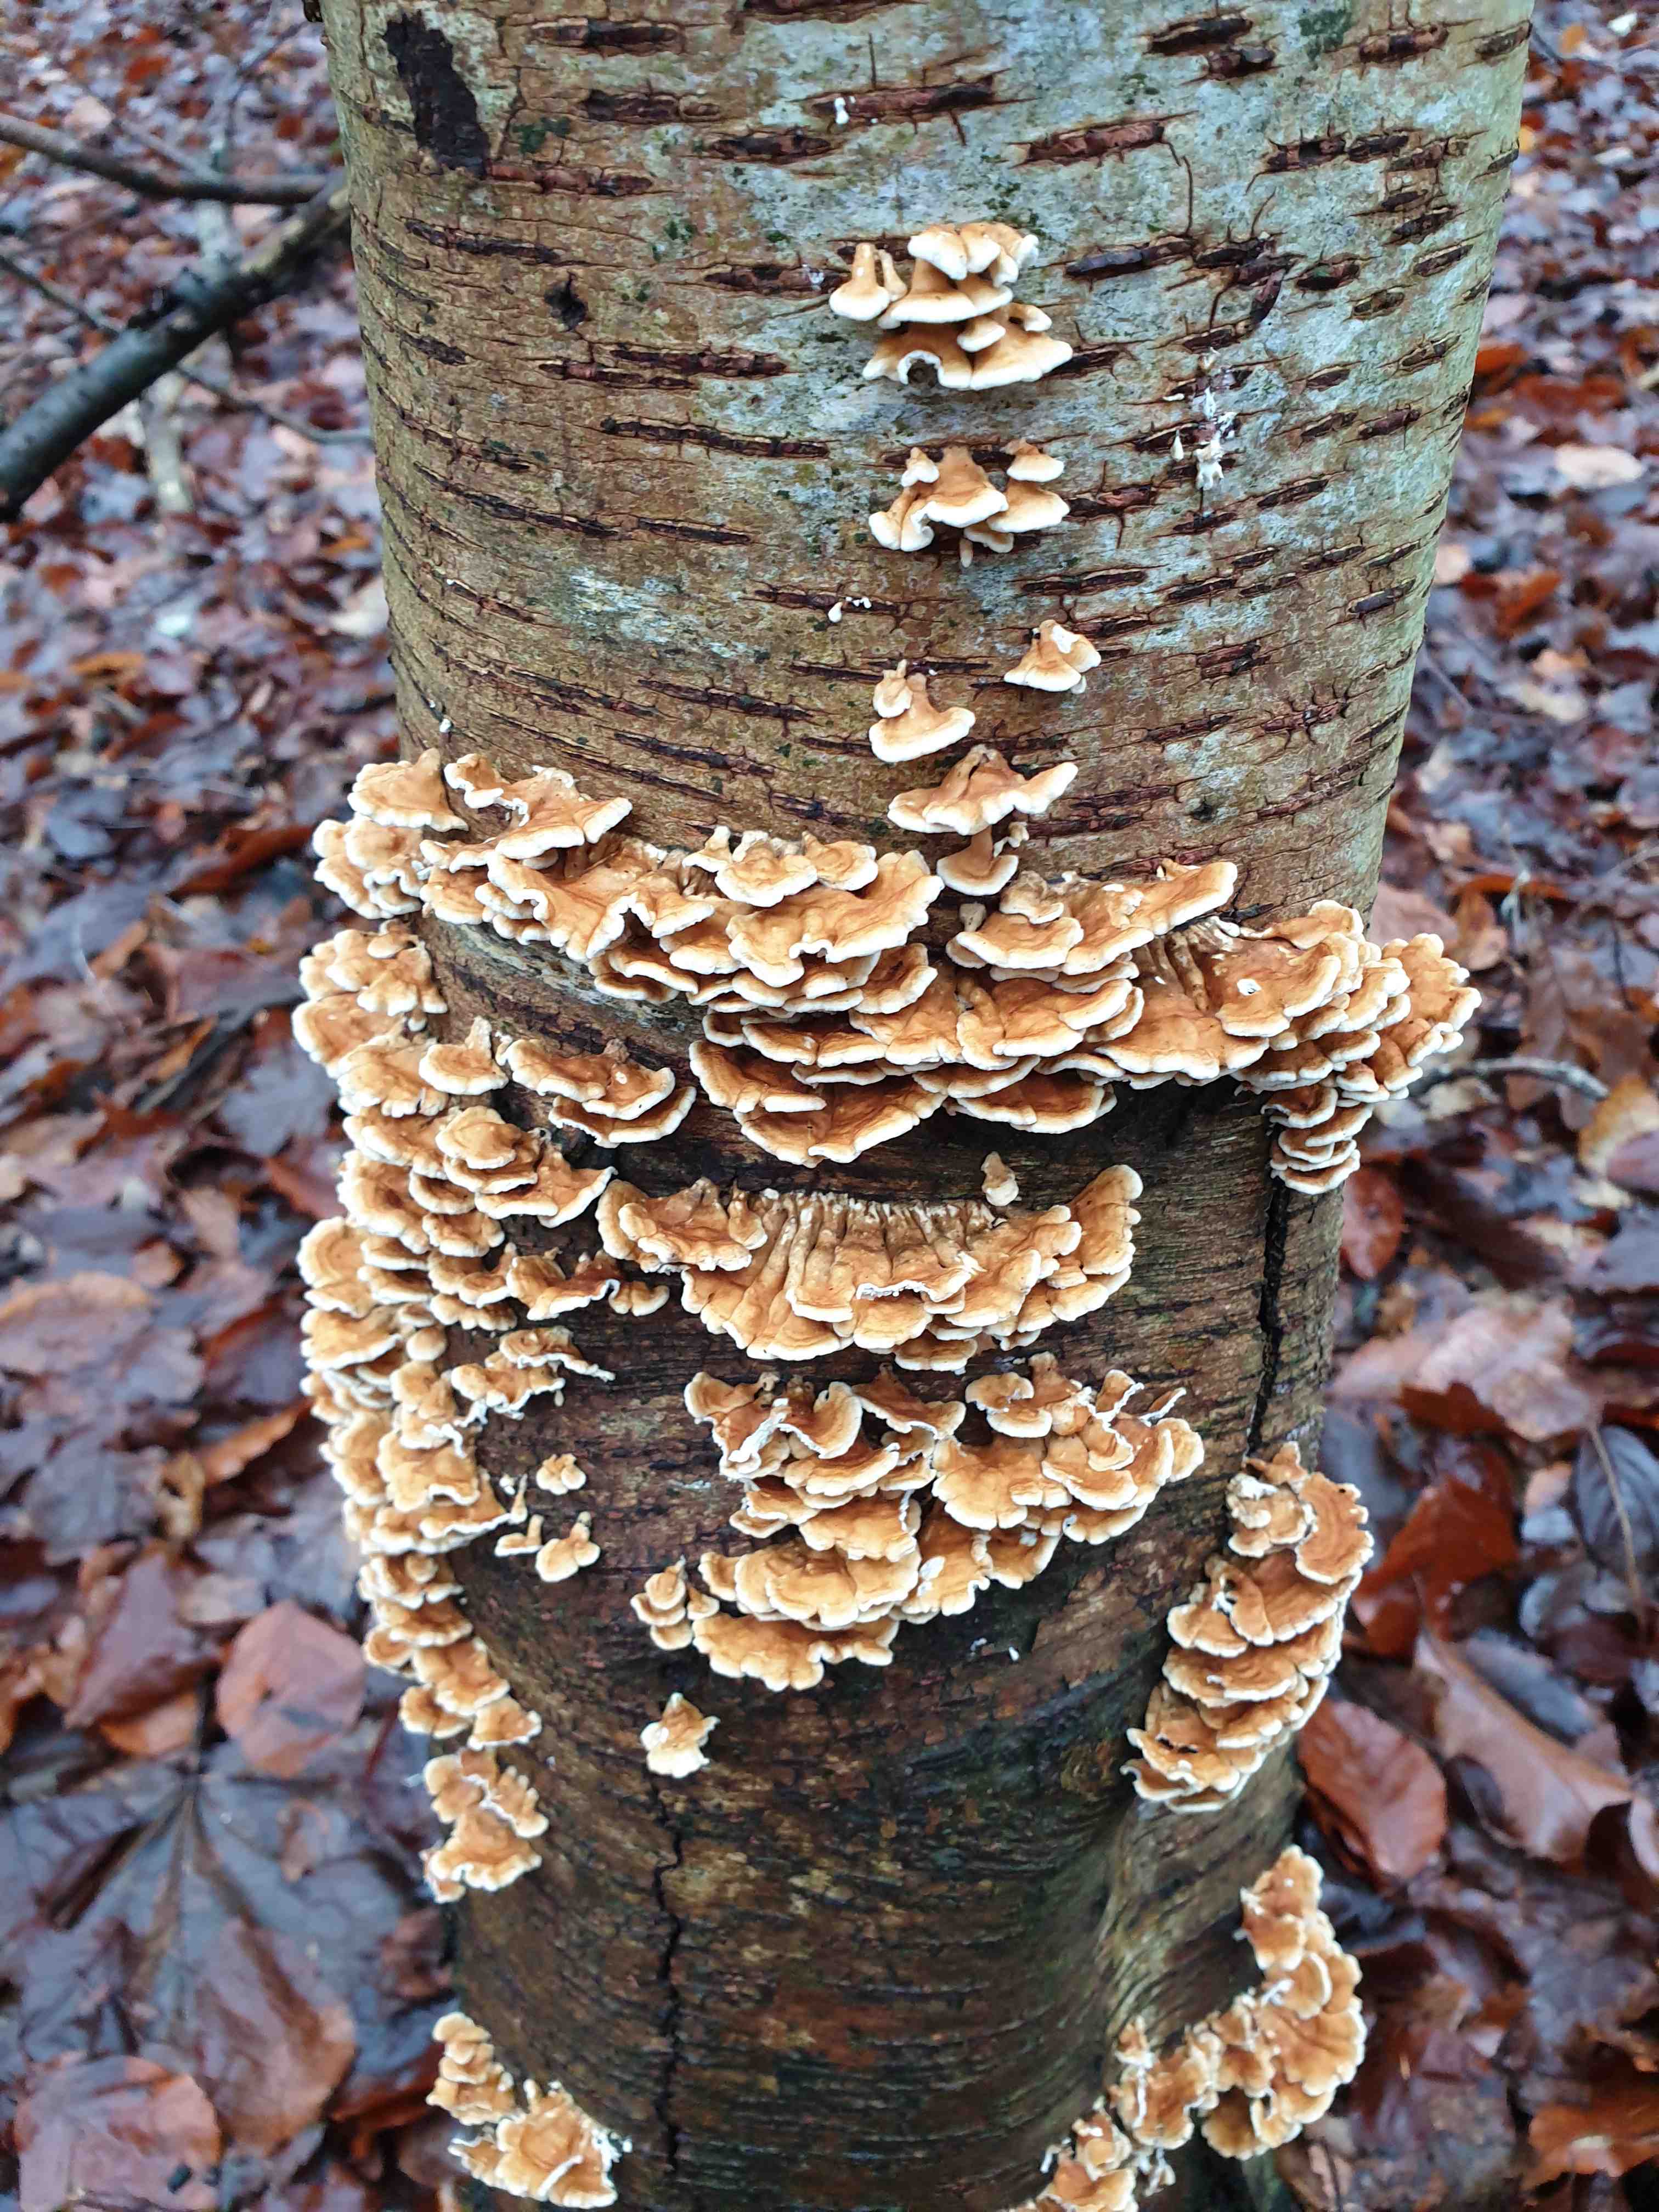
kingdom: Fungi
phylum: Basidiomycota
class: Agaricomycetes
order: Amylocorticiales
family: Amylocorticiaceae
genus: Plicaturopsis
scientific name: Plicaturopsis crispa
